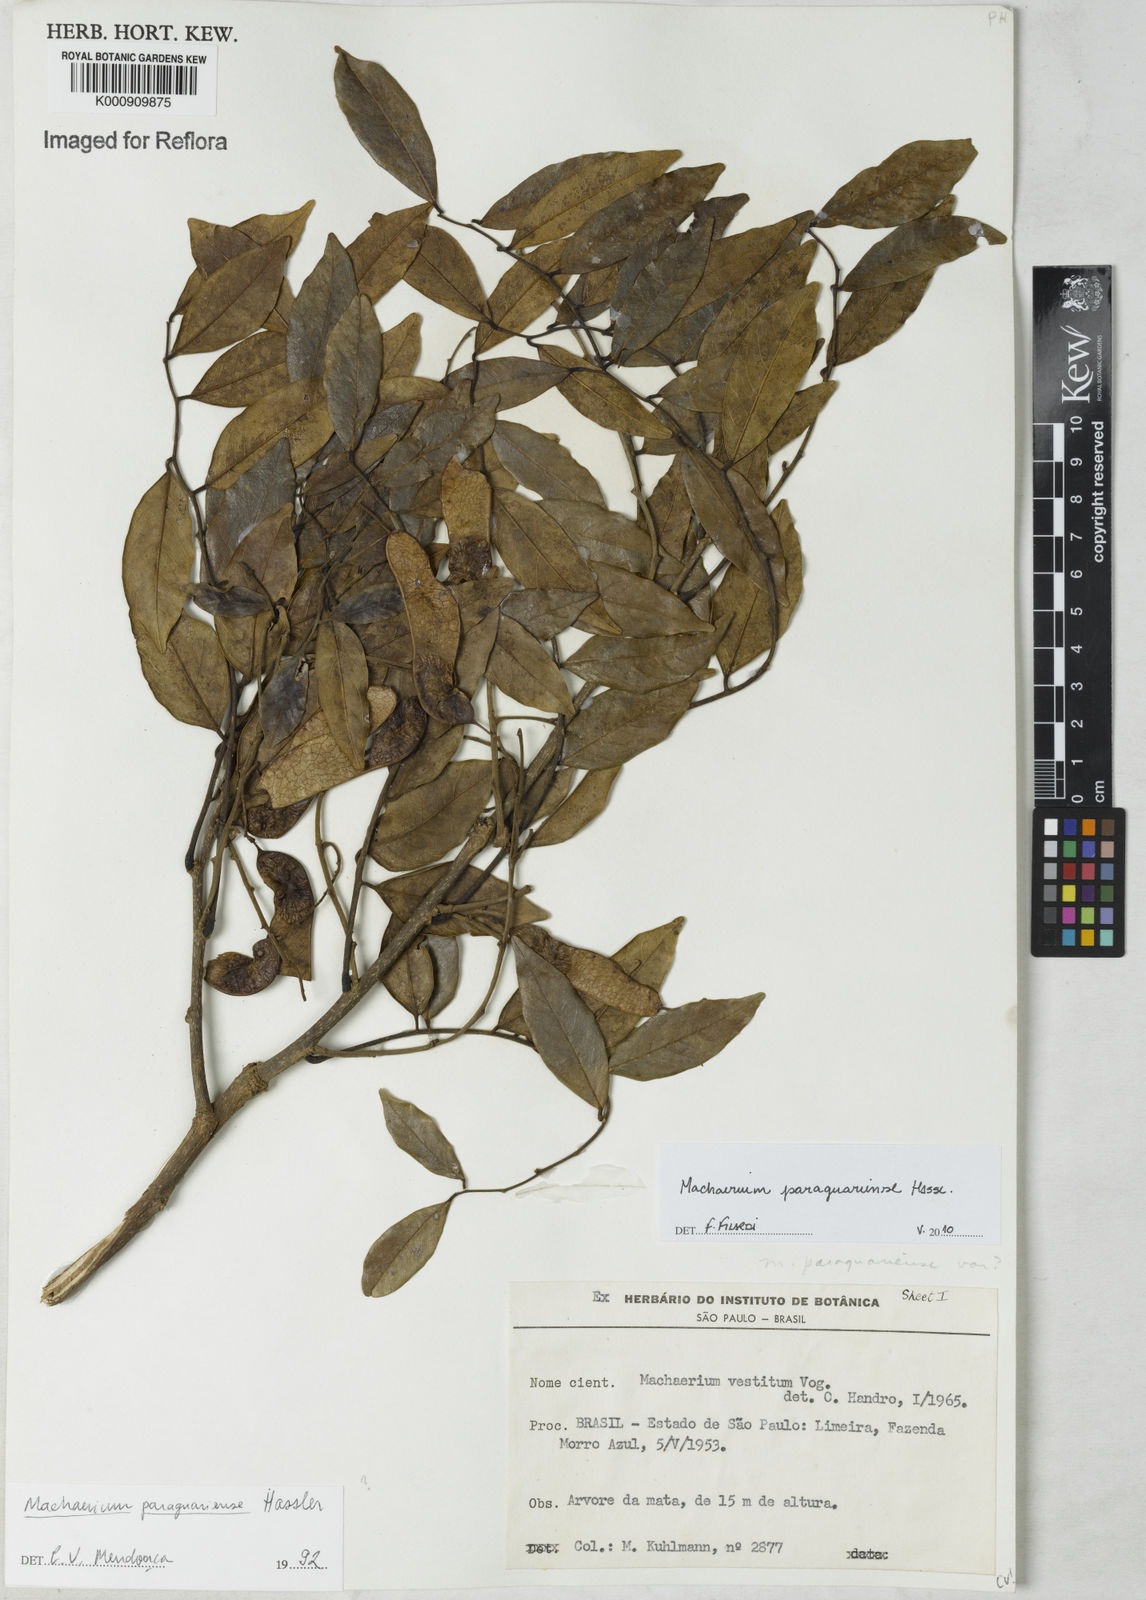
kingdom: Plantae
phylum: Tracheophyta
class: Magnoliopsida
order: Fabales
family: Fabaceae
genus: Machaerium
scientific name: Machaerium oblongifolium
